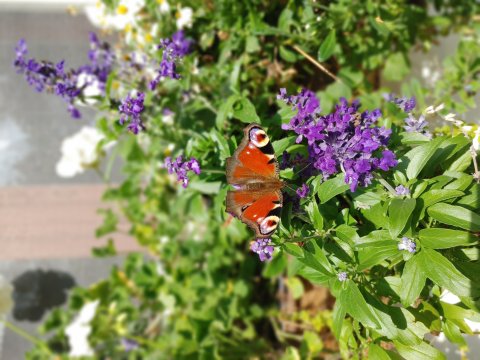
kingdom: Animalia
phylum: Arthropoda
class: Insecta
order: Lepidoptera
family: Nymphalidae
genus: Aglais
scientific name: Aglais io
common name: European Peacock
